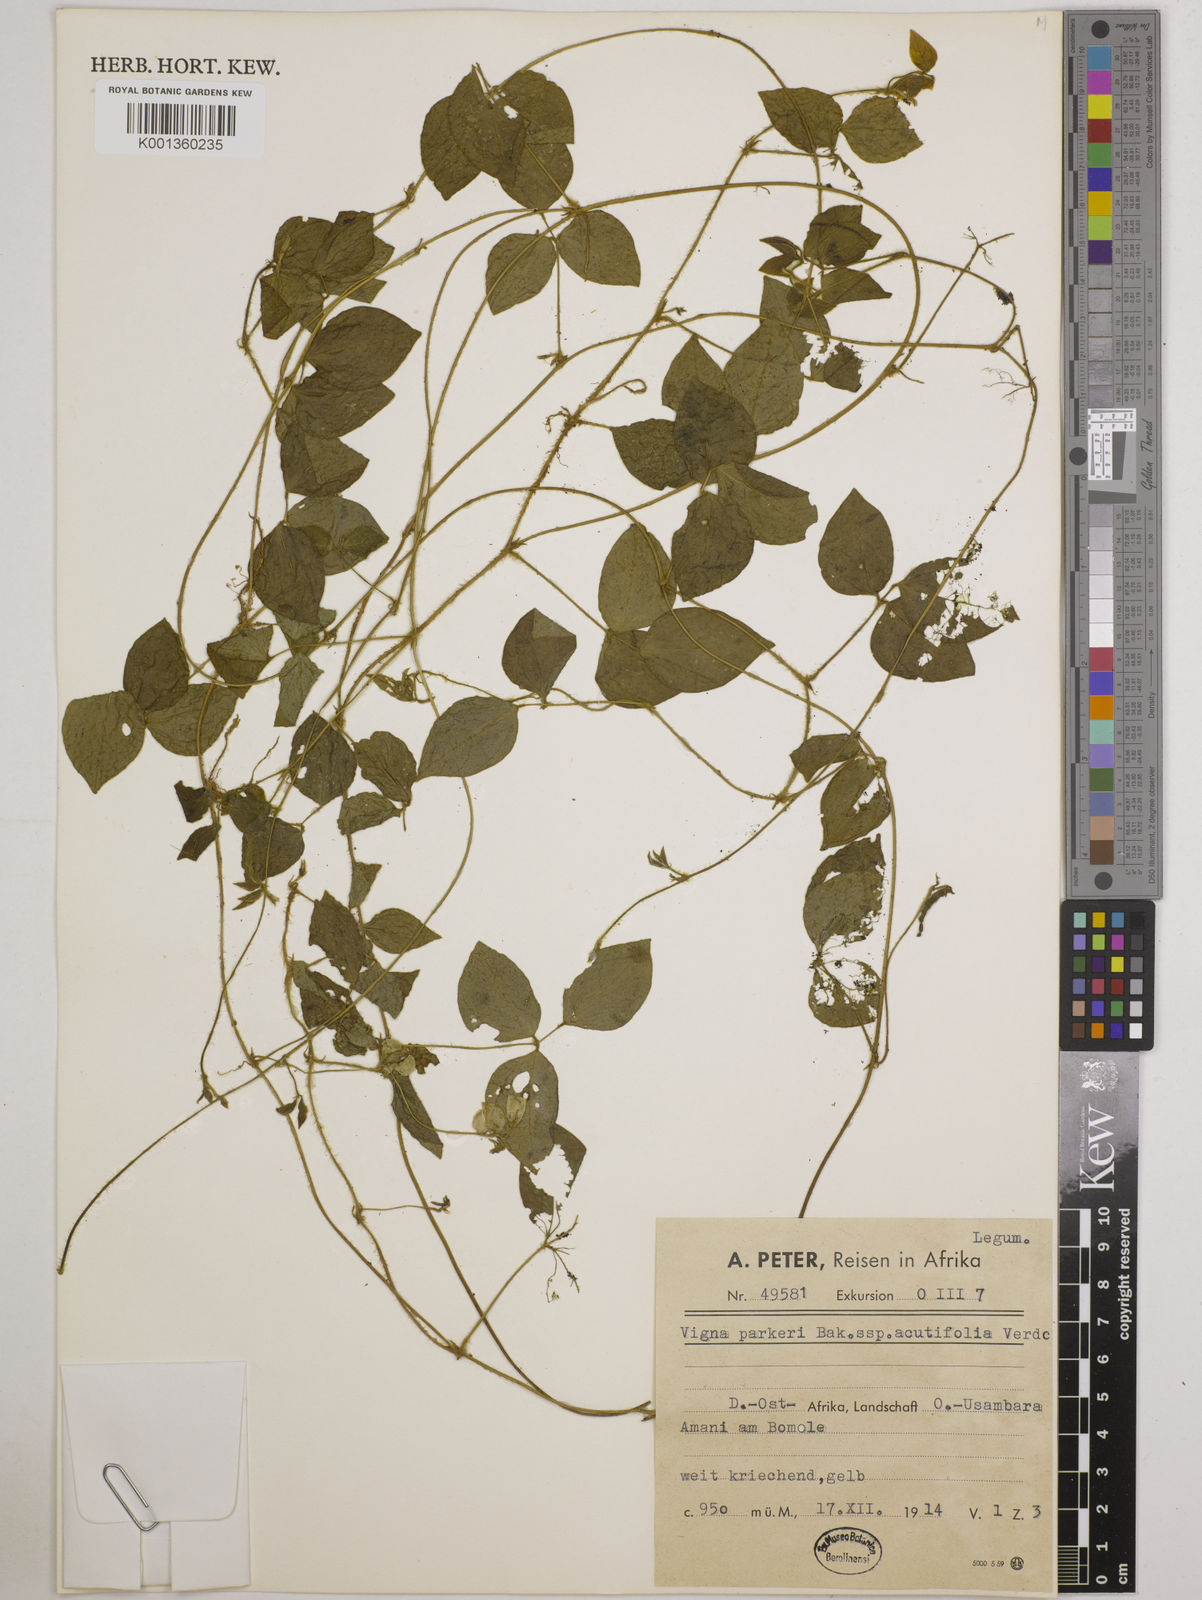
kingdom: Plantae
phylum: Tracheophyta
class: Magnoliopsida
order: Fabales
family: Fabaceae
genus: Vigna
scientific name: Vigna hosei
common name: Sarawak-bean
